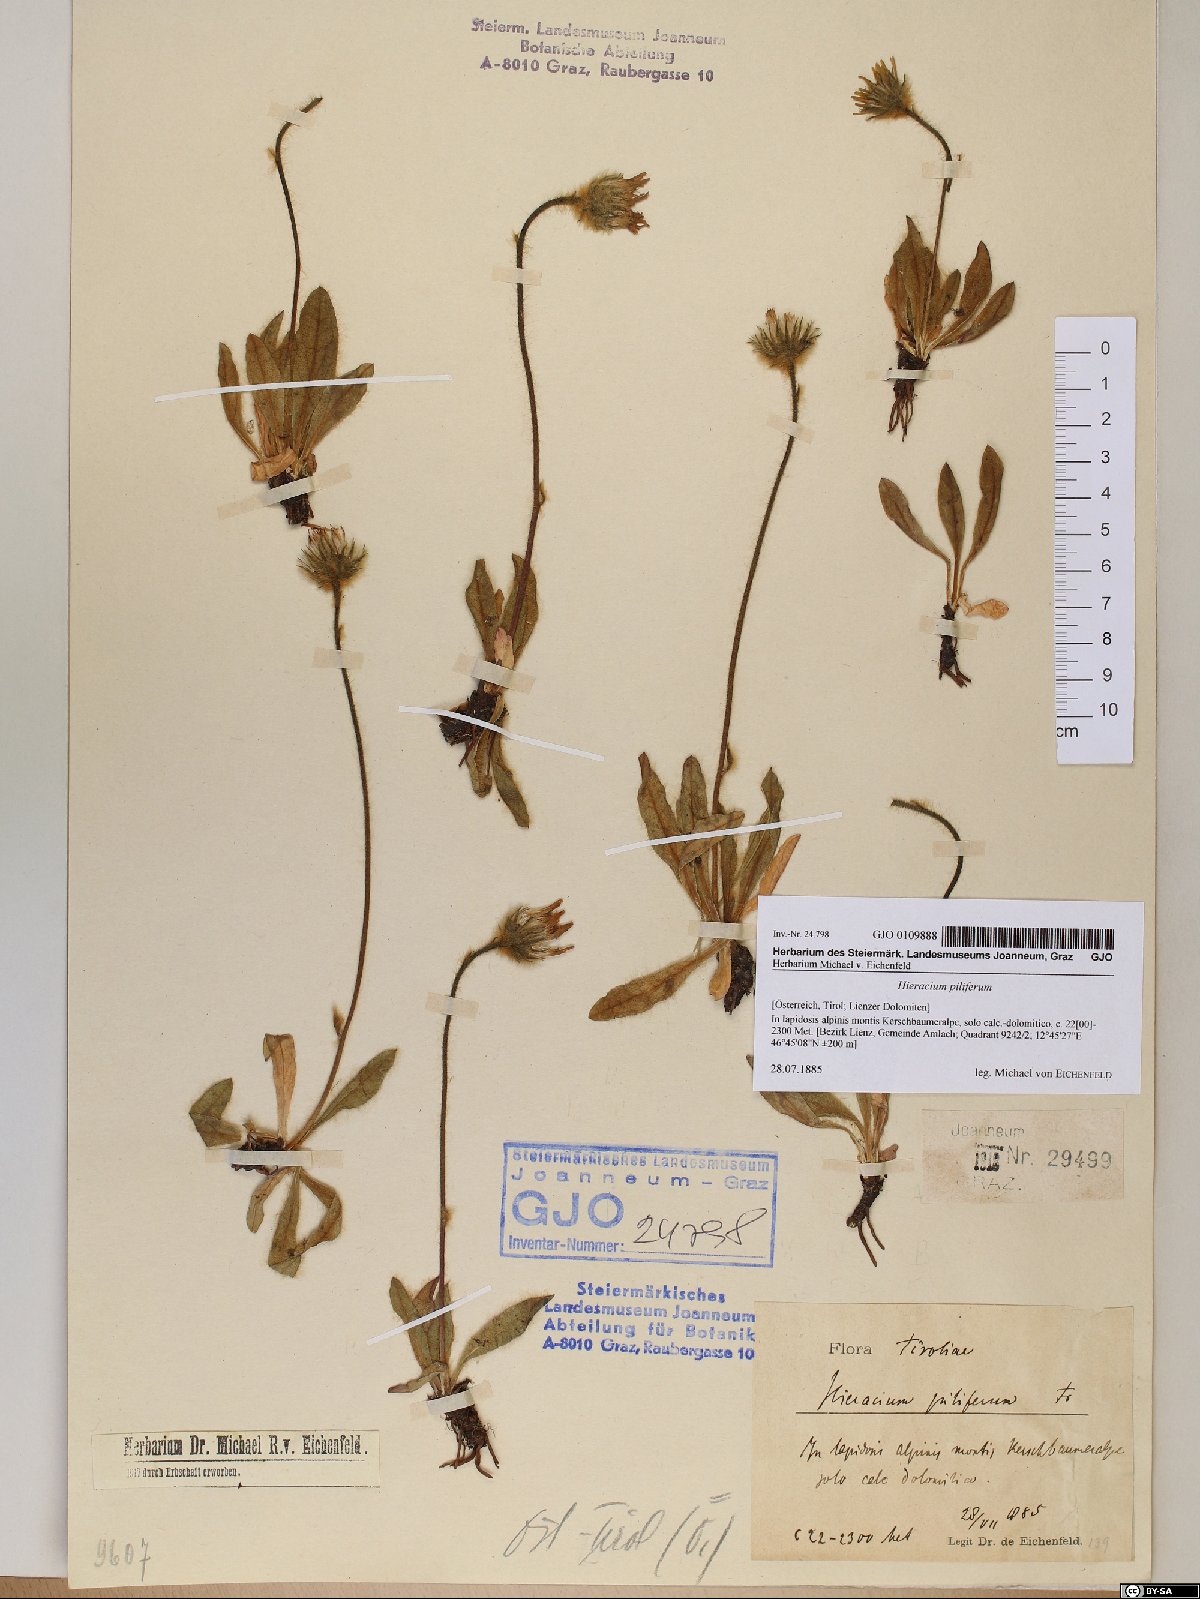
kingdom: Plantae
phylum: Tracheophyta
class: Magnoliopsida
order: Asterales
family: Asteraceae
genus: Hieracium
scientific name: Hieracium piliferum
